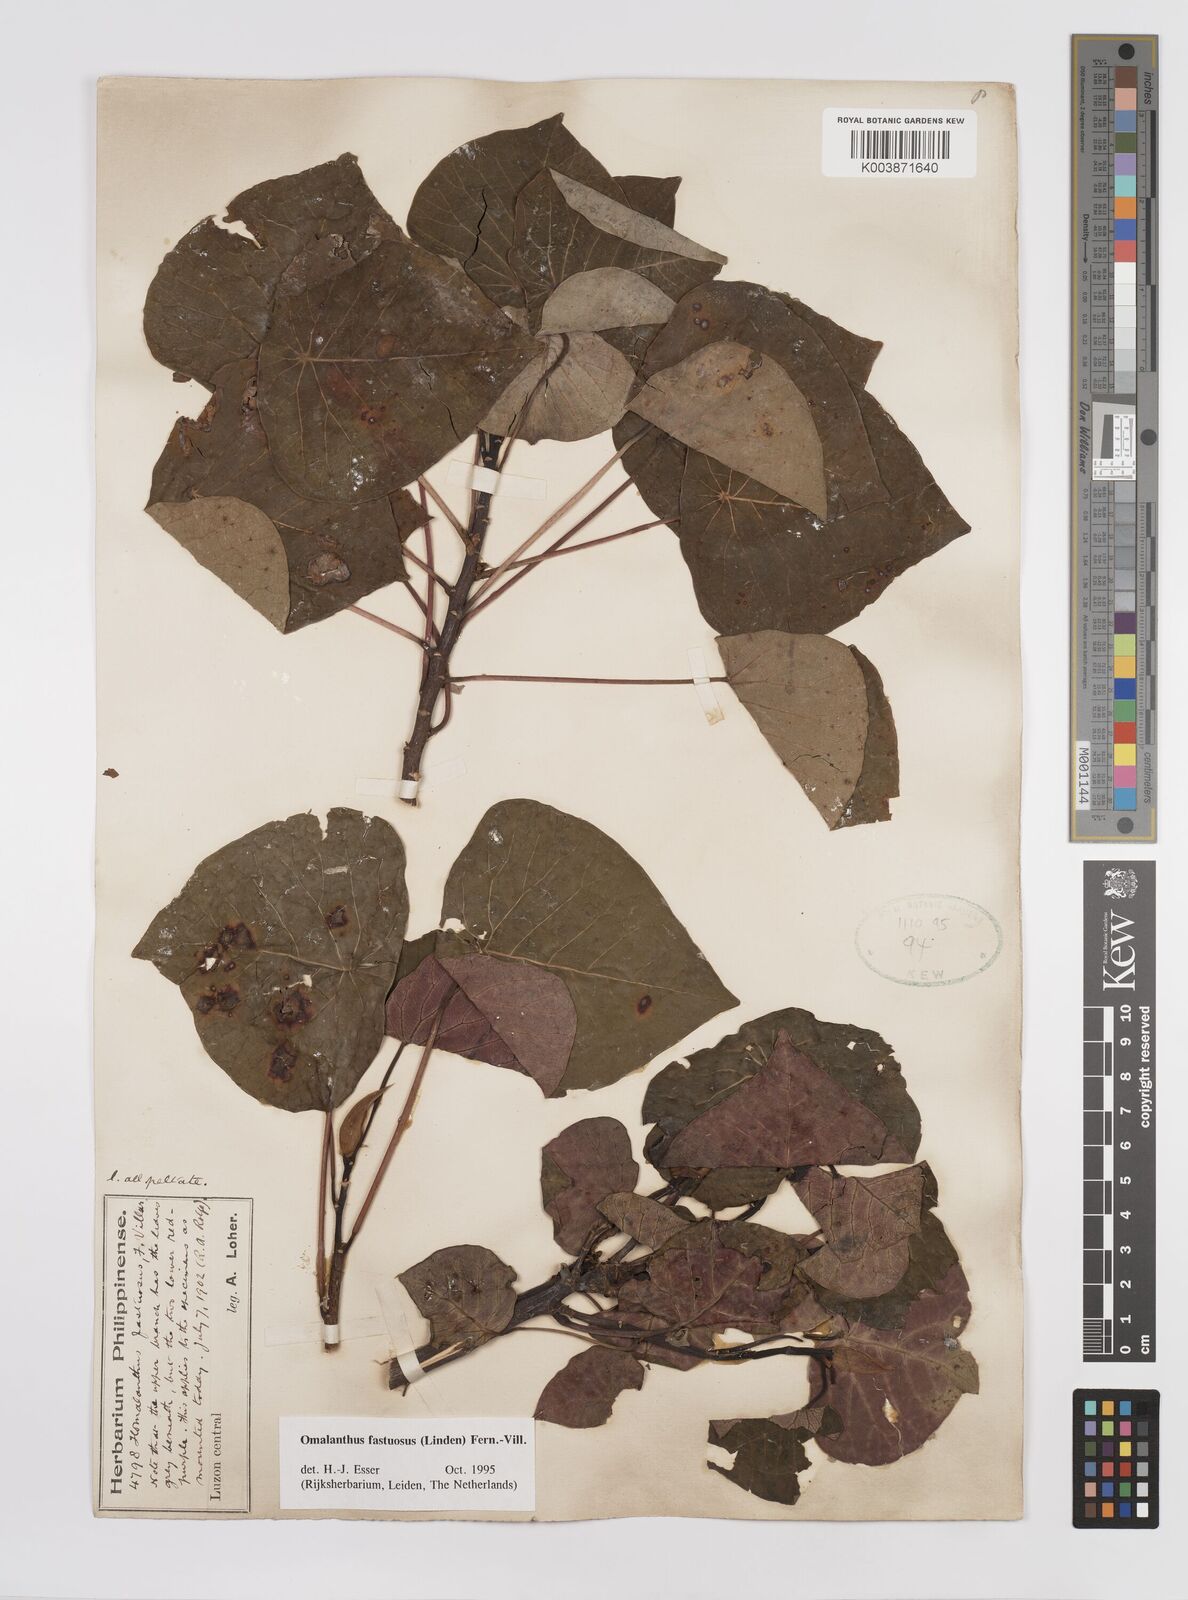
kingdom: Plantae
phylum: Tracheophyta
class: Magnoliopsida
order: Malpighiales
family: Euphorbiaceae
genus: Homalanthus
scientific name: Homalanthus fastuosus
